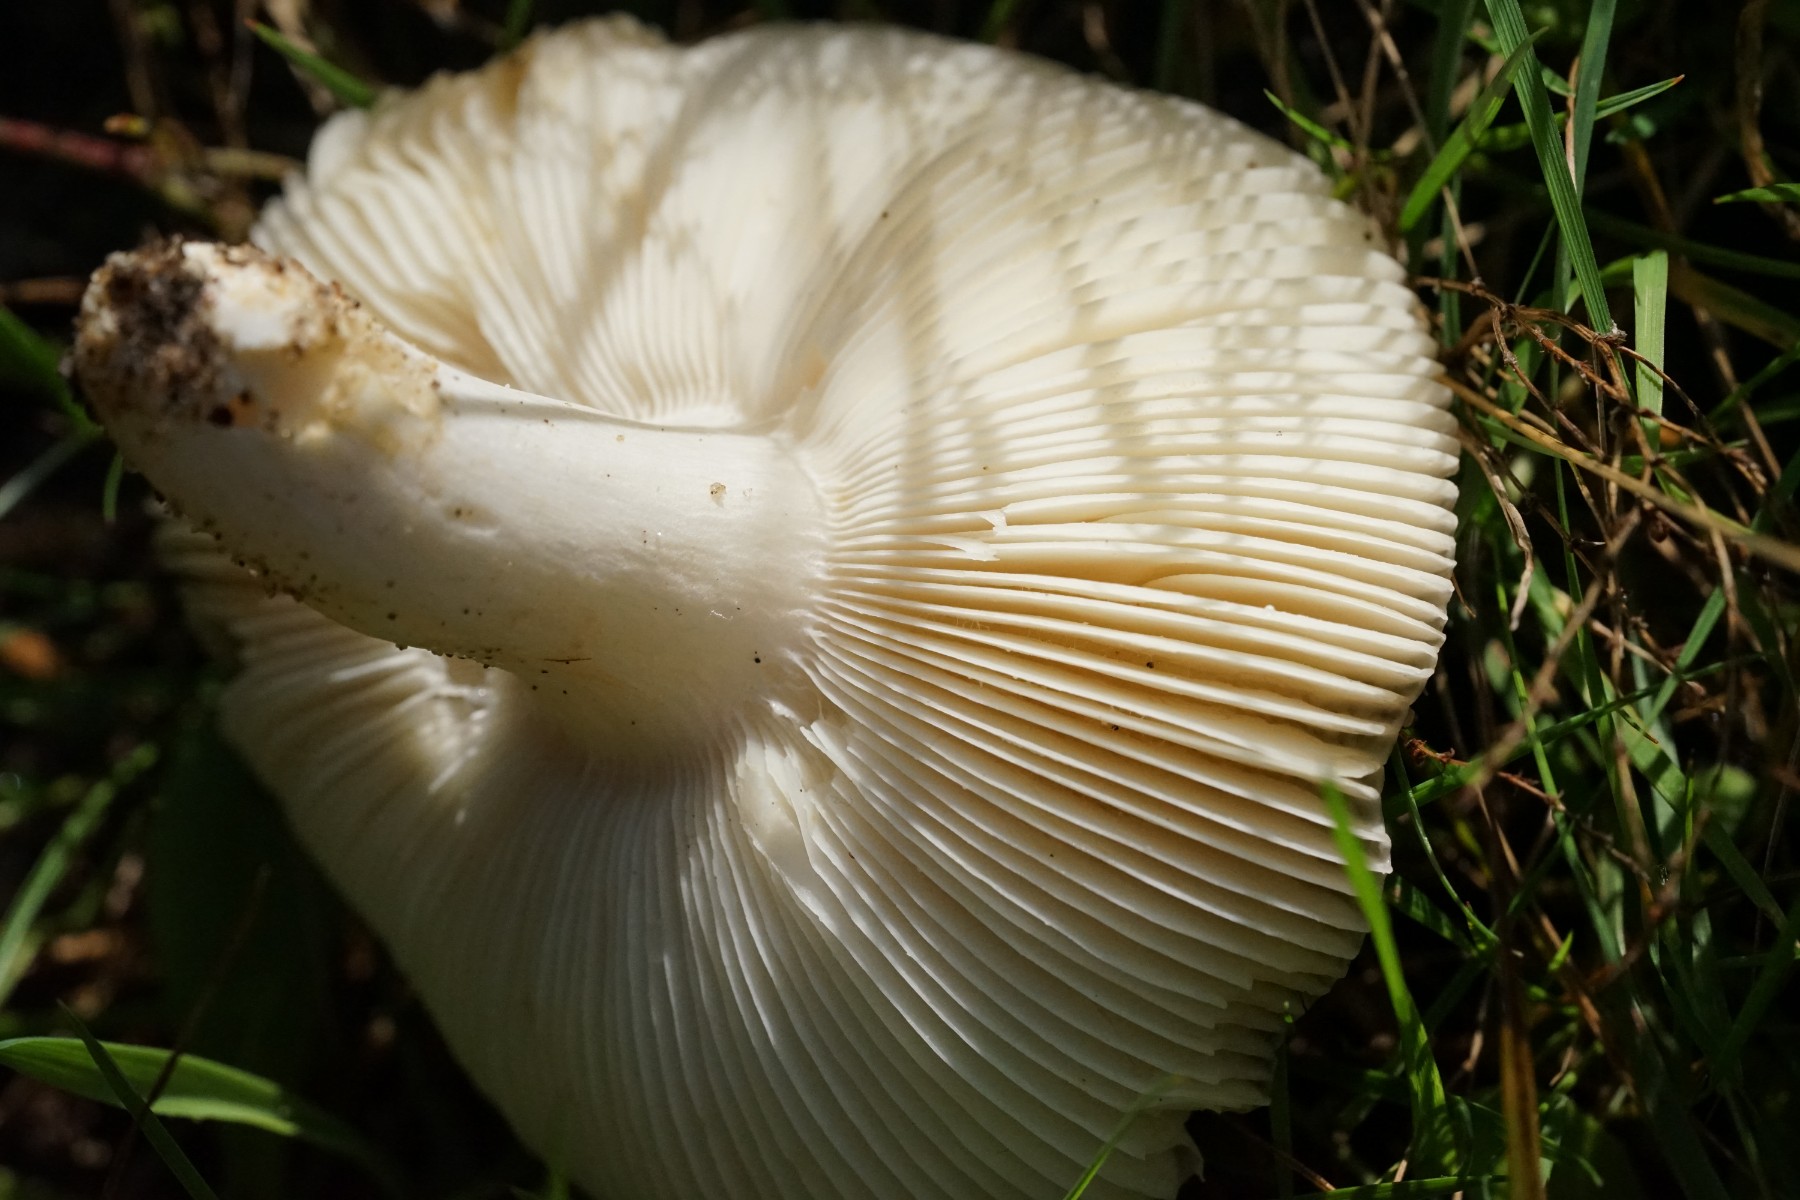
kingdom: Fungi
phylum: Basidiomycota
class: Agaricomycetes
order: Russulales
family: Russulaceae
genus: Russula
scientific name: Russula
